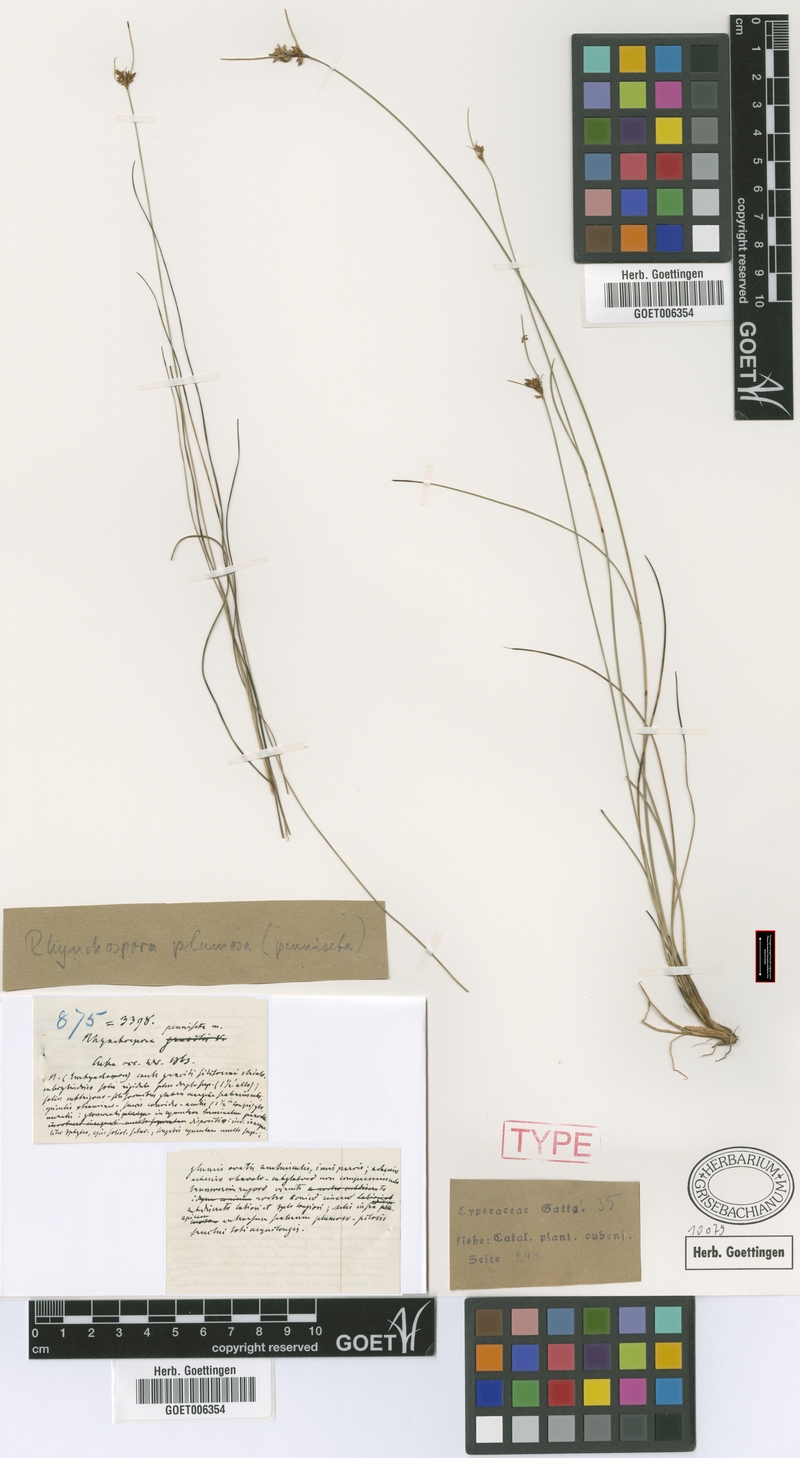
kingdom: Plantae
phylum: Tracheophyta
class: Liliopsida
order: Poales
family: Cyperaceae
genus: Rhynchospora
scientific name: Rhynchospora plumosa
